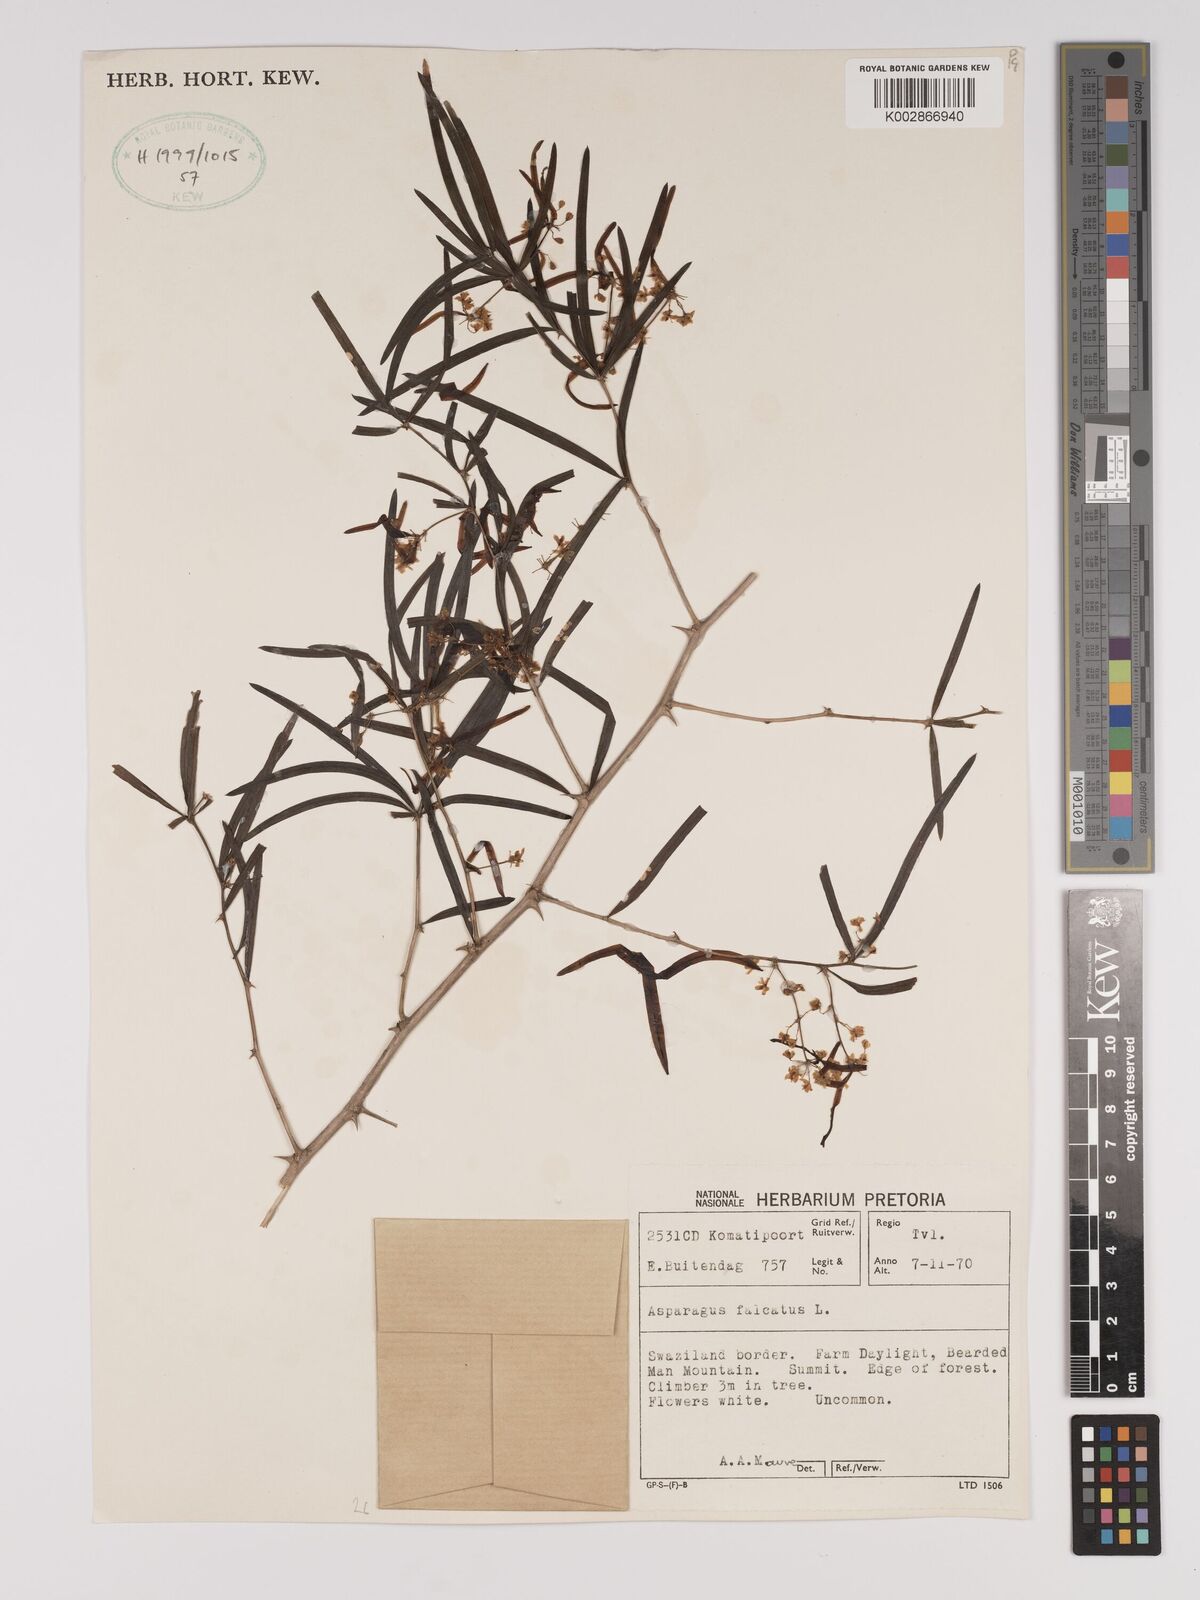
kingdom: Plantae
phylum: Tracheophyta
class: Liliopsida
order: Asparagales
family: Asparagaceae
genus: Asparagus
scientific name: Asparagus falcatus
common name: Asparagus
